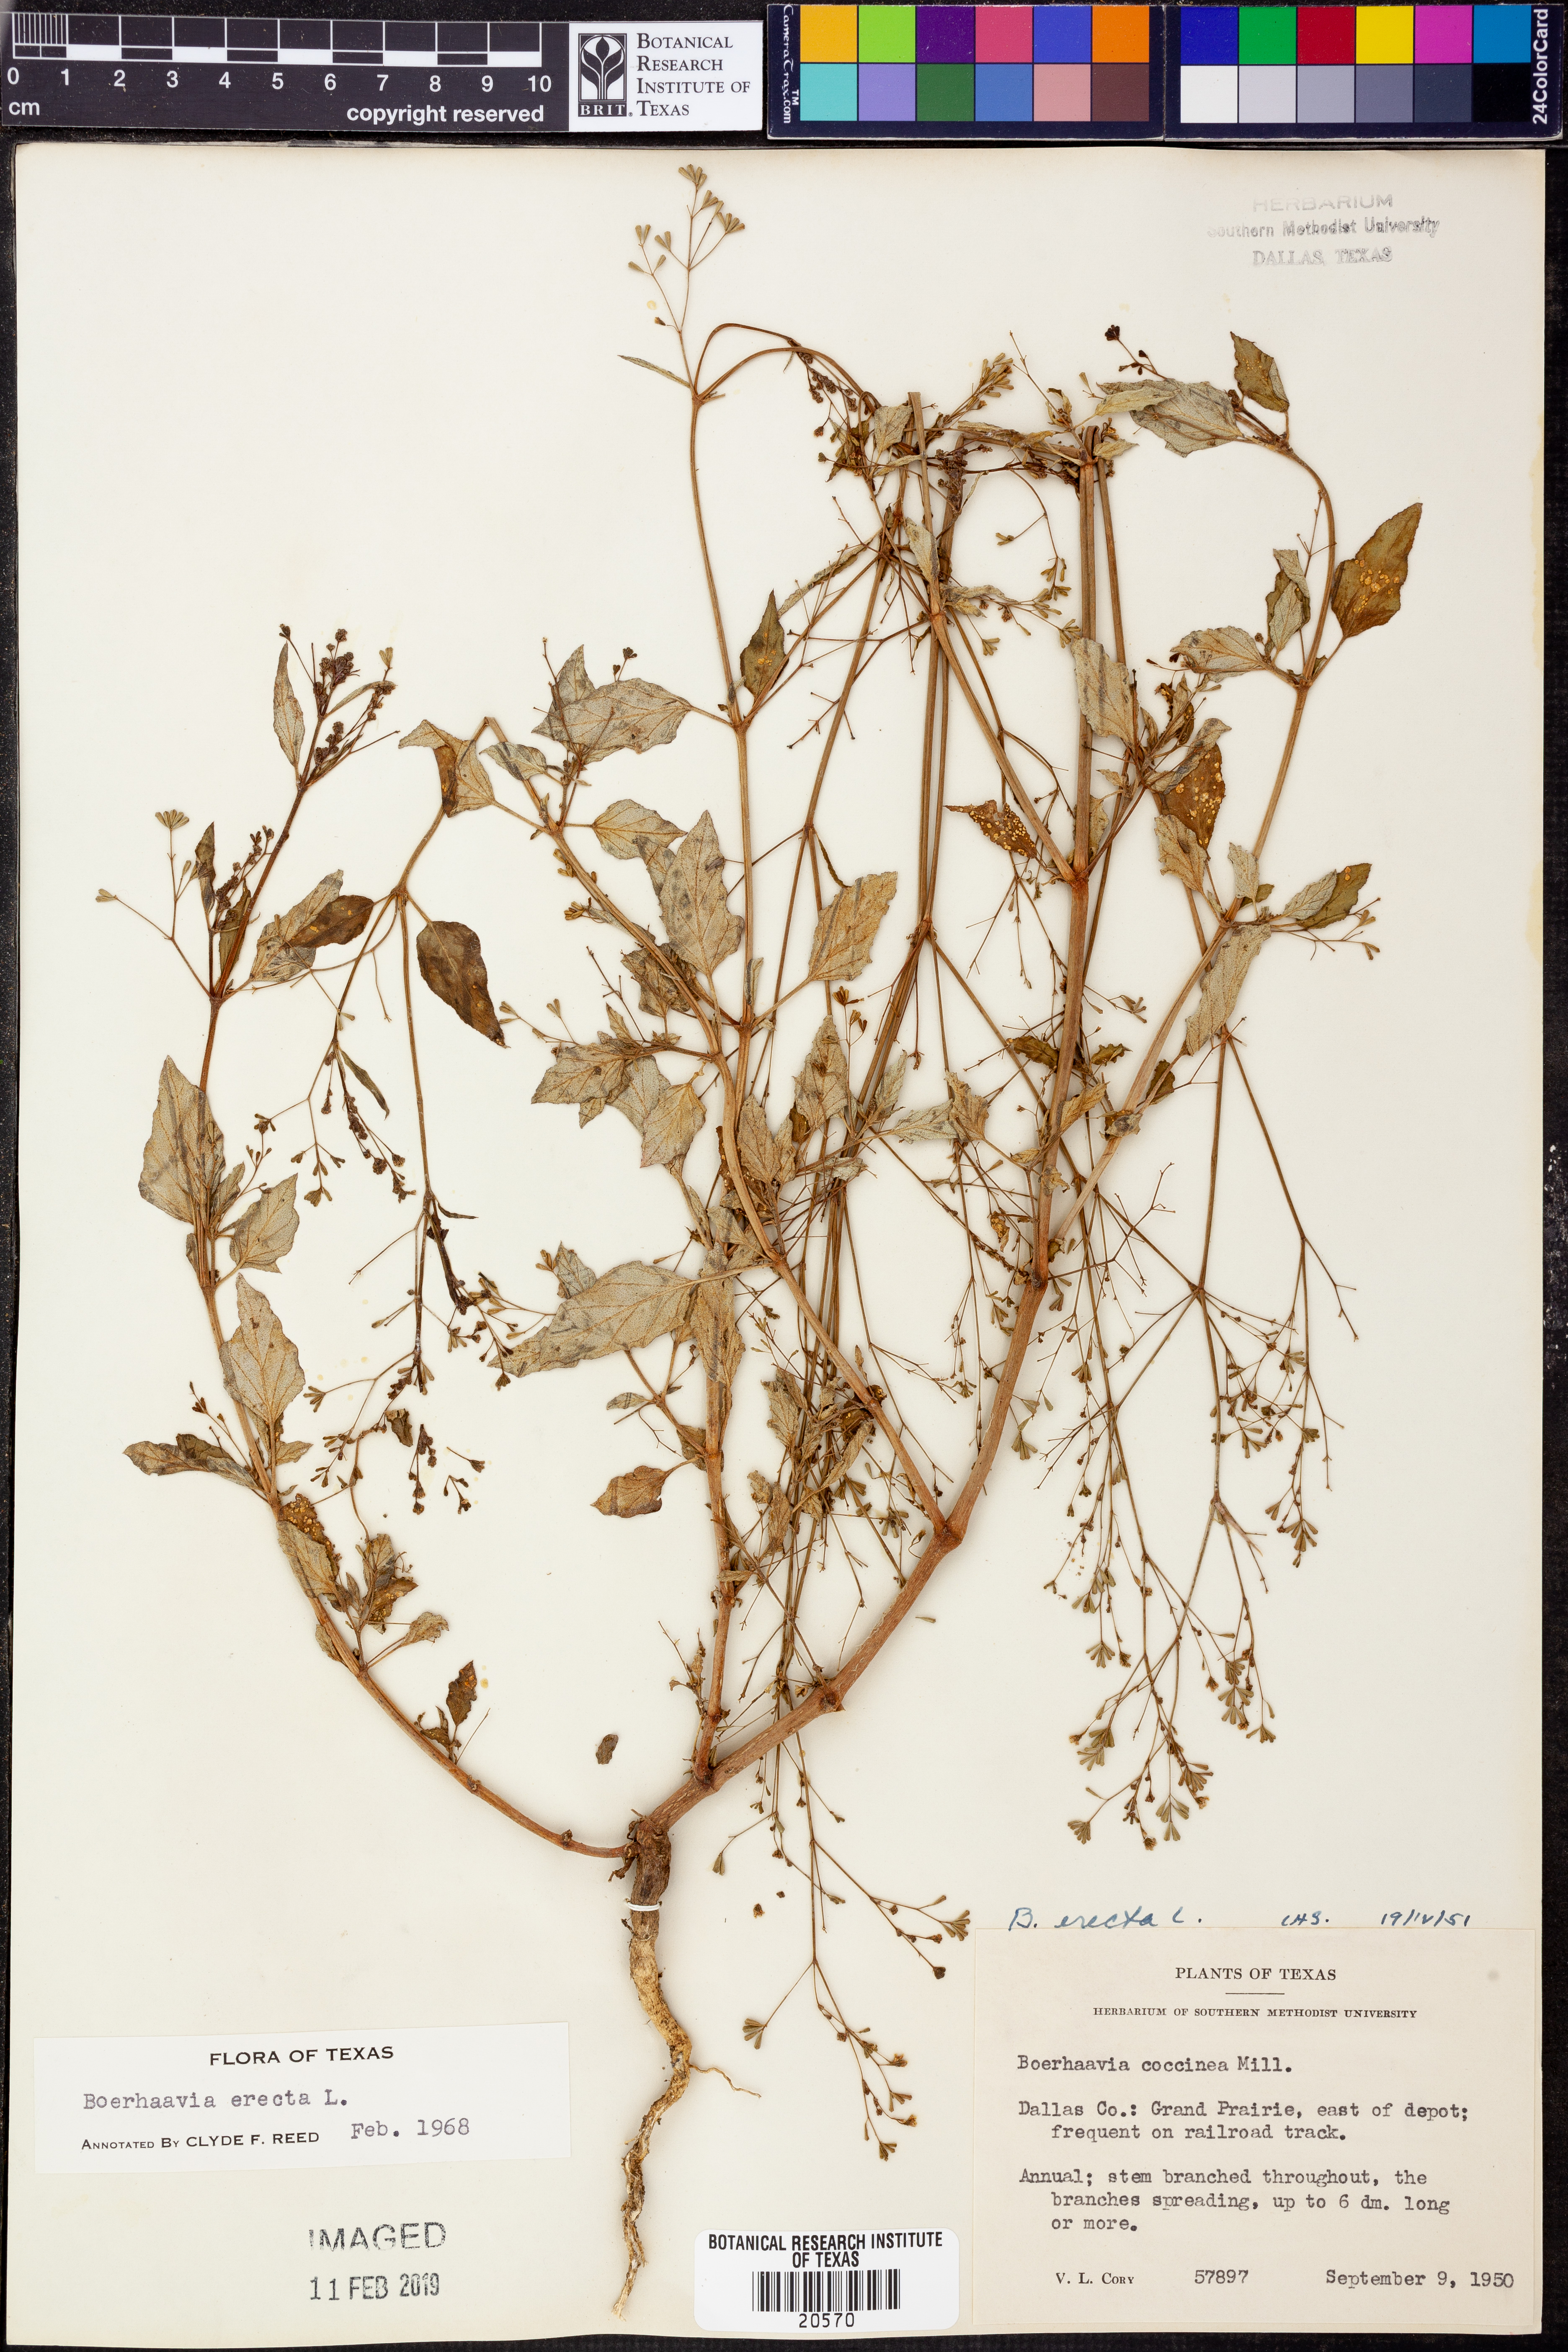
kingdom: Plantae
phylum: Tracheophyta
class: Magnoliopsida
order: Caryophyllales
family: Nyctaginaceae
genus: Boerhavia
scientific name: Boerhavia erecta
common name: Erect spiderling
